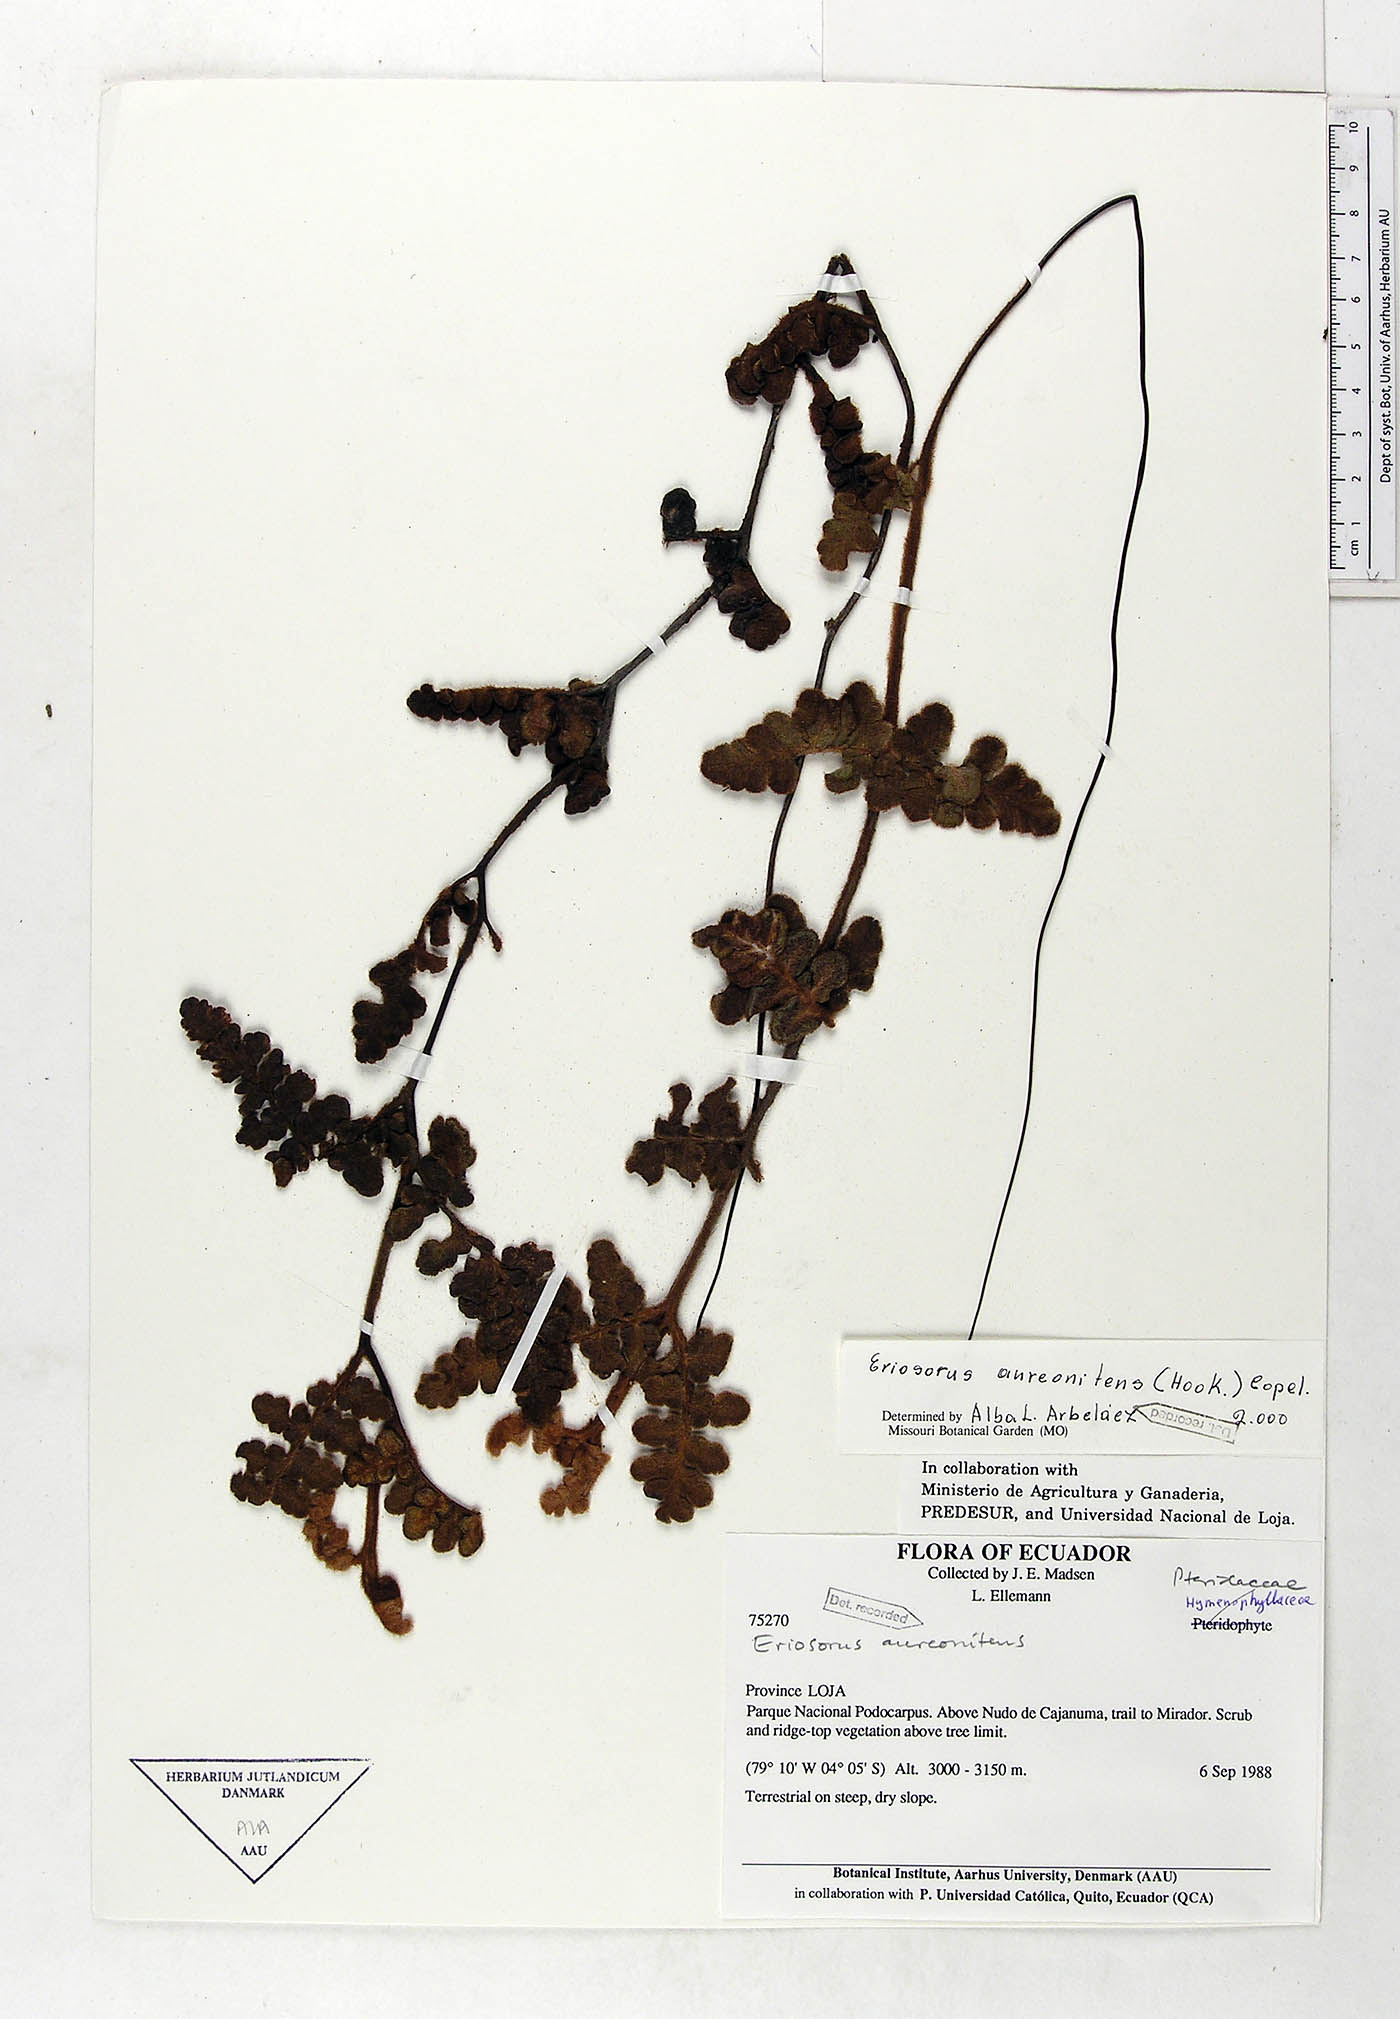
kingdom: Plantae
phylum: Tracheophyta
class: Polypodiopsida
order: Polypodiales
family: Pteridaceae
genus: Jamesonia
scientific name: Jamesonia aureonitens
